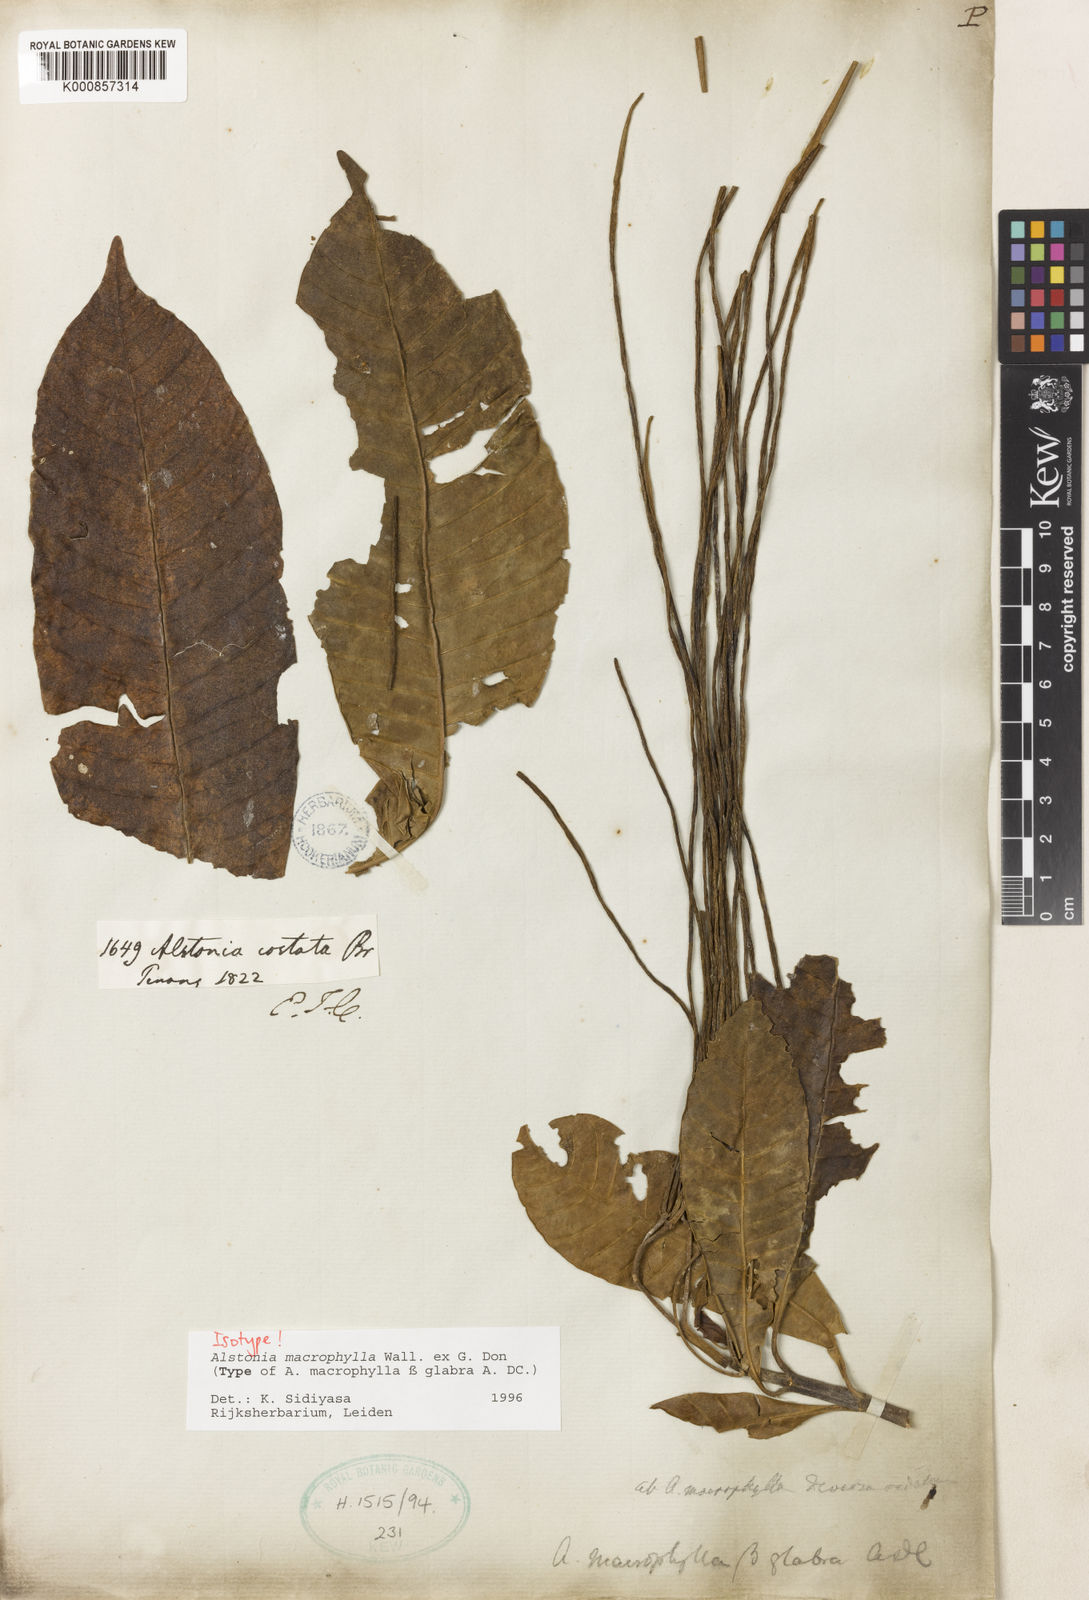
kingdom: Plantae
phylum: Tracheophyta
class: Magnoliopsida
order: Gentianales
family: Apocynaceae
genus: Alstonia
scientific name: Alstonia macrophylla
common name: Deviltree
